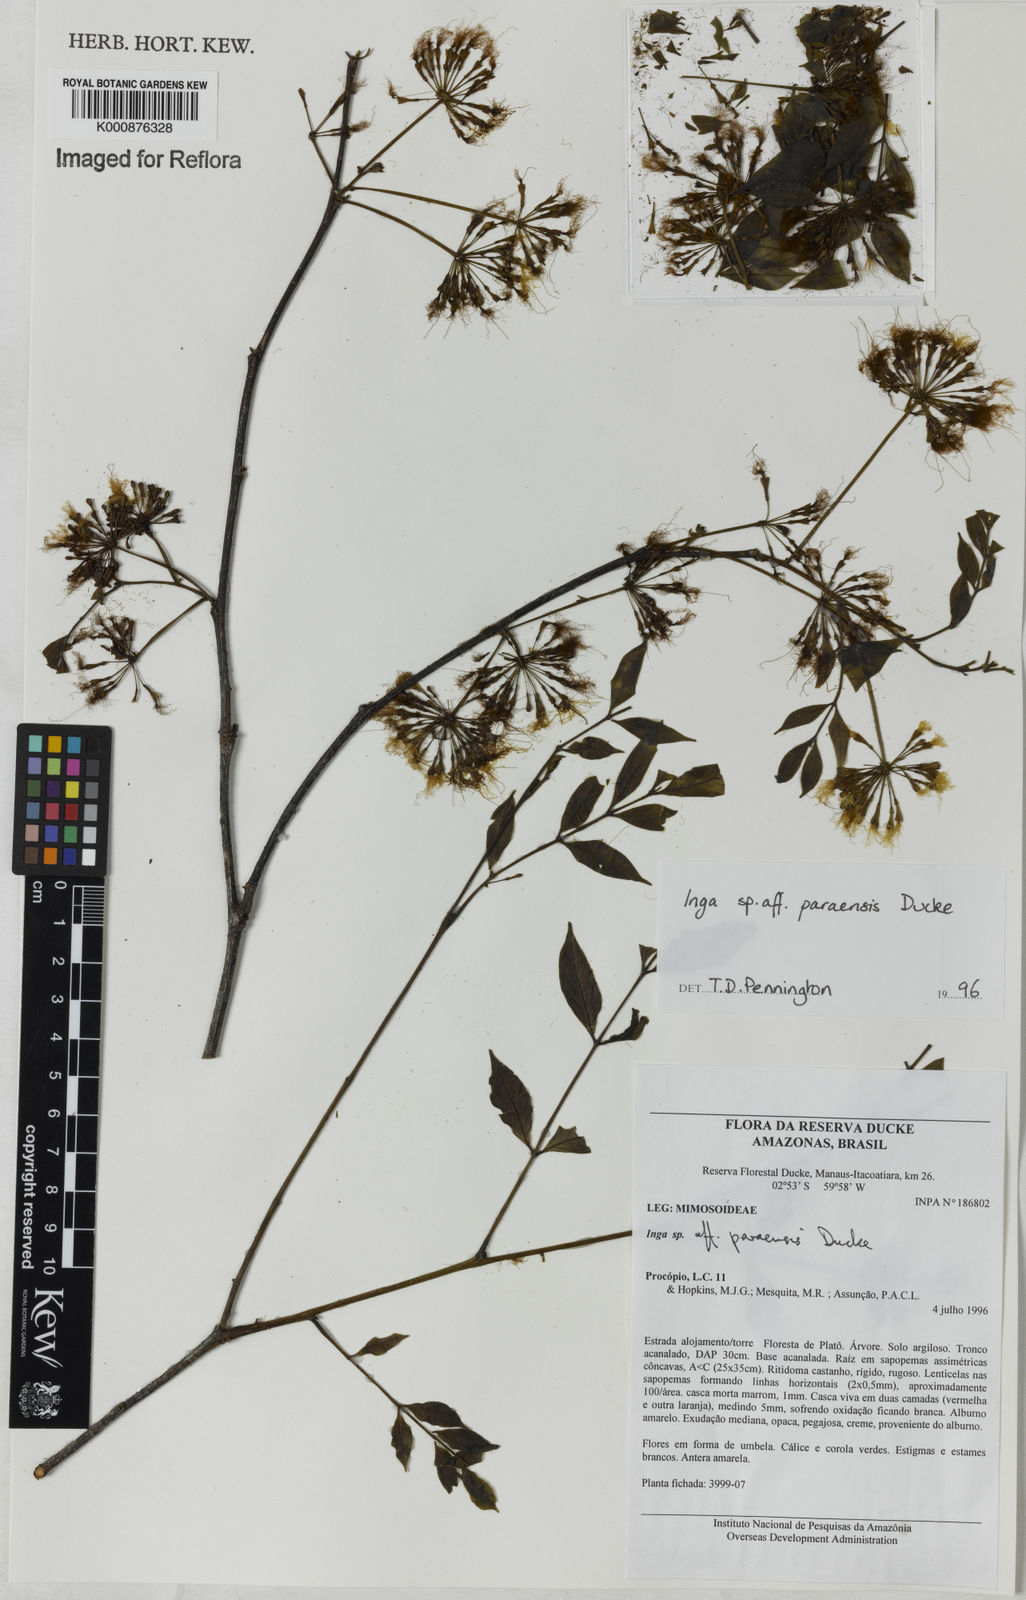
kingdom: Plantae
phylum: Tracheophyta
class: Magnoliopsida
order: Fabales
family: Fabaceae
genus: Inga
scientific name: Inga paraensis
